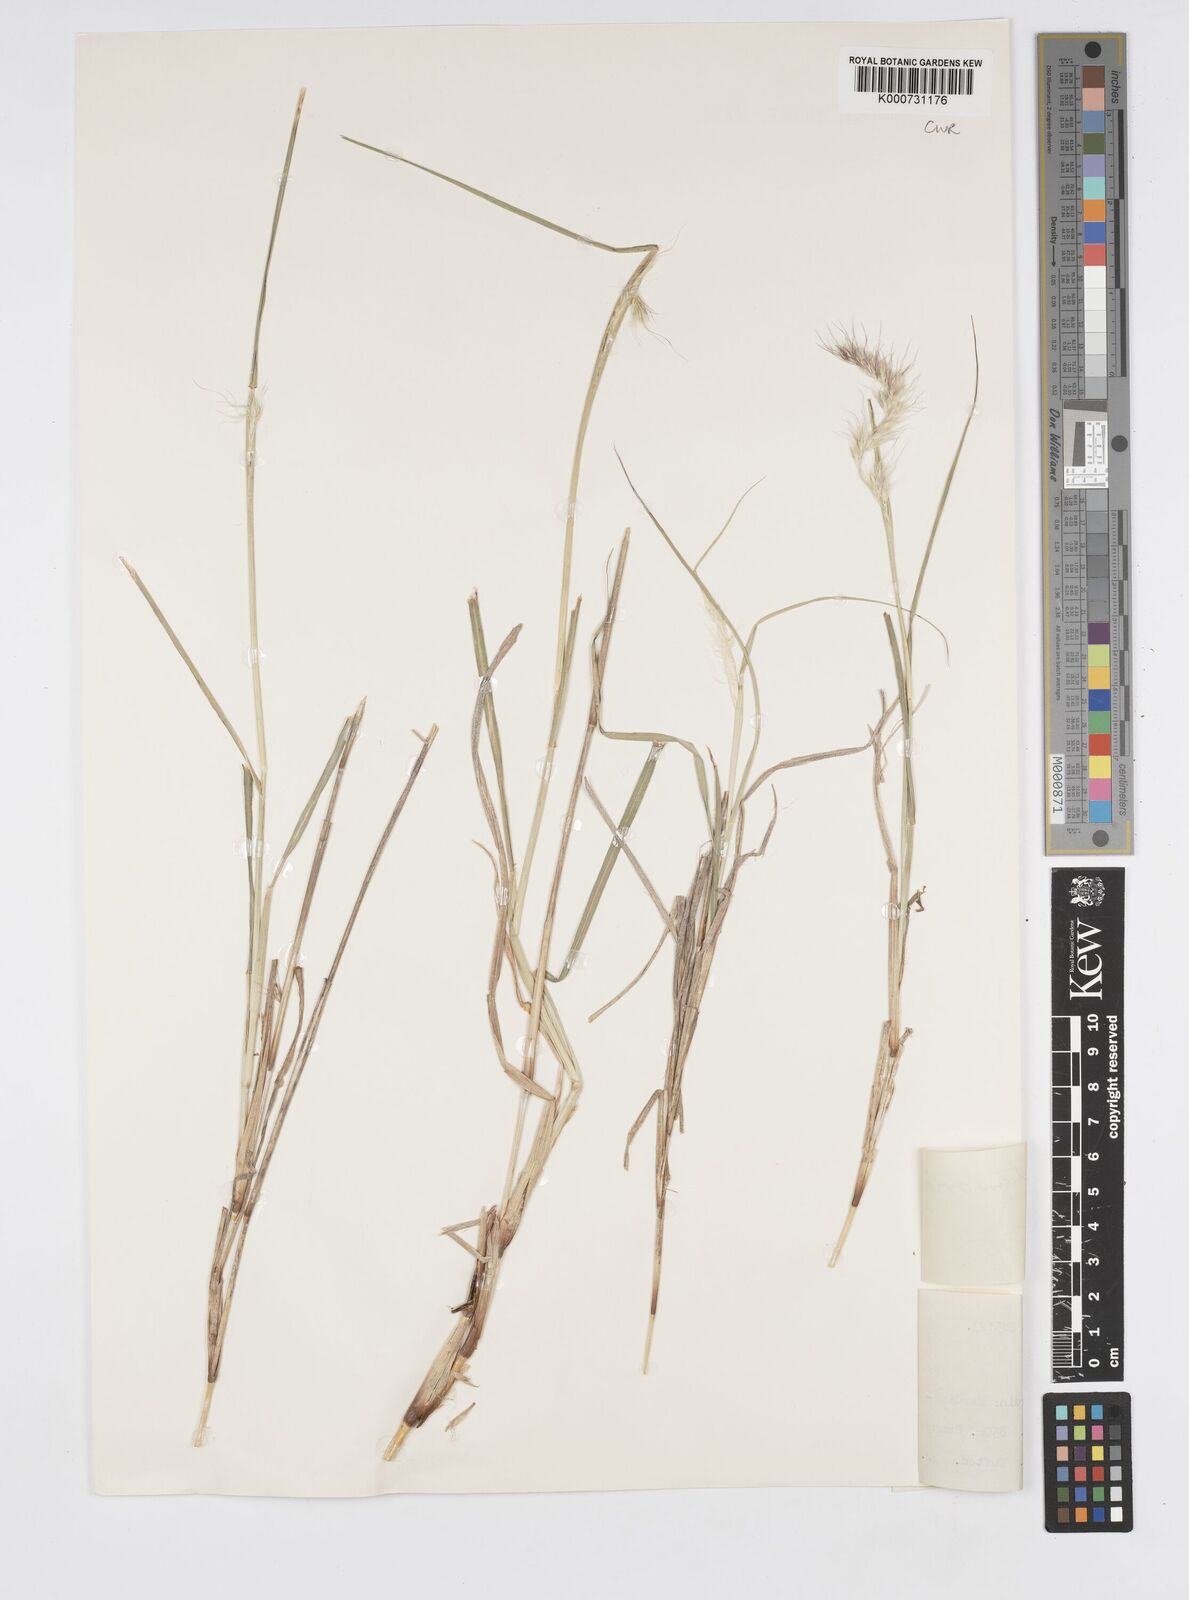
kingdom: Plantae
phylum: Tracheophyta
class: Liliopsida
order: Poales
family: Poaceae
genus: Cenchrus
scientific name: Cenchrus orientalis
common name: Oriental fountain grass
